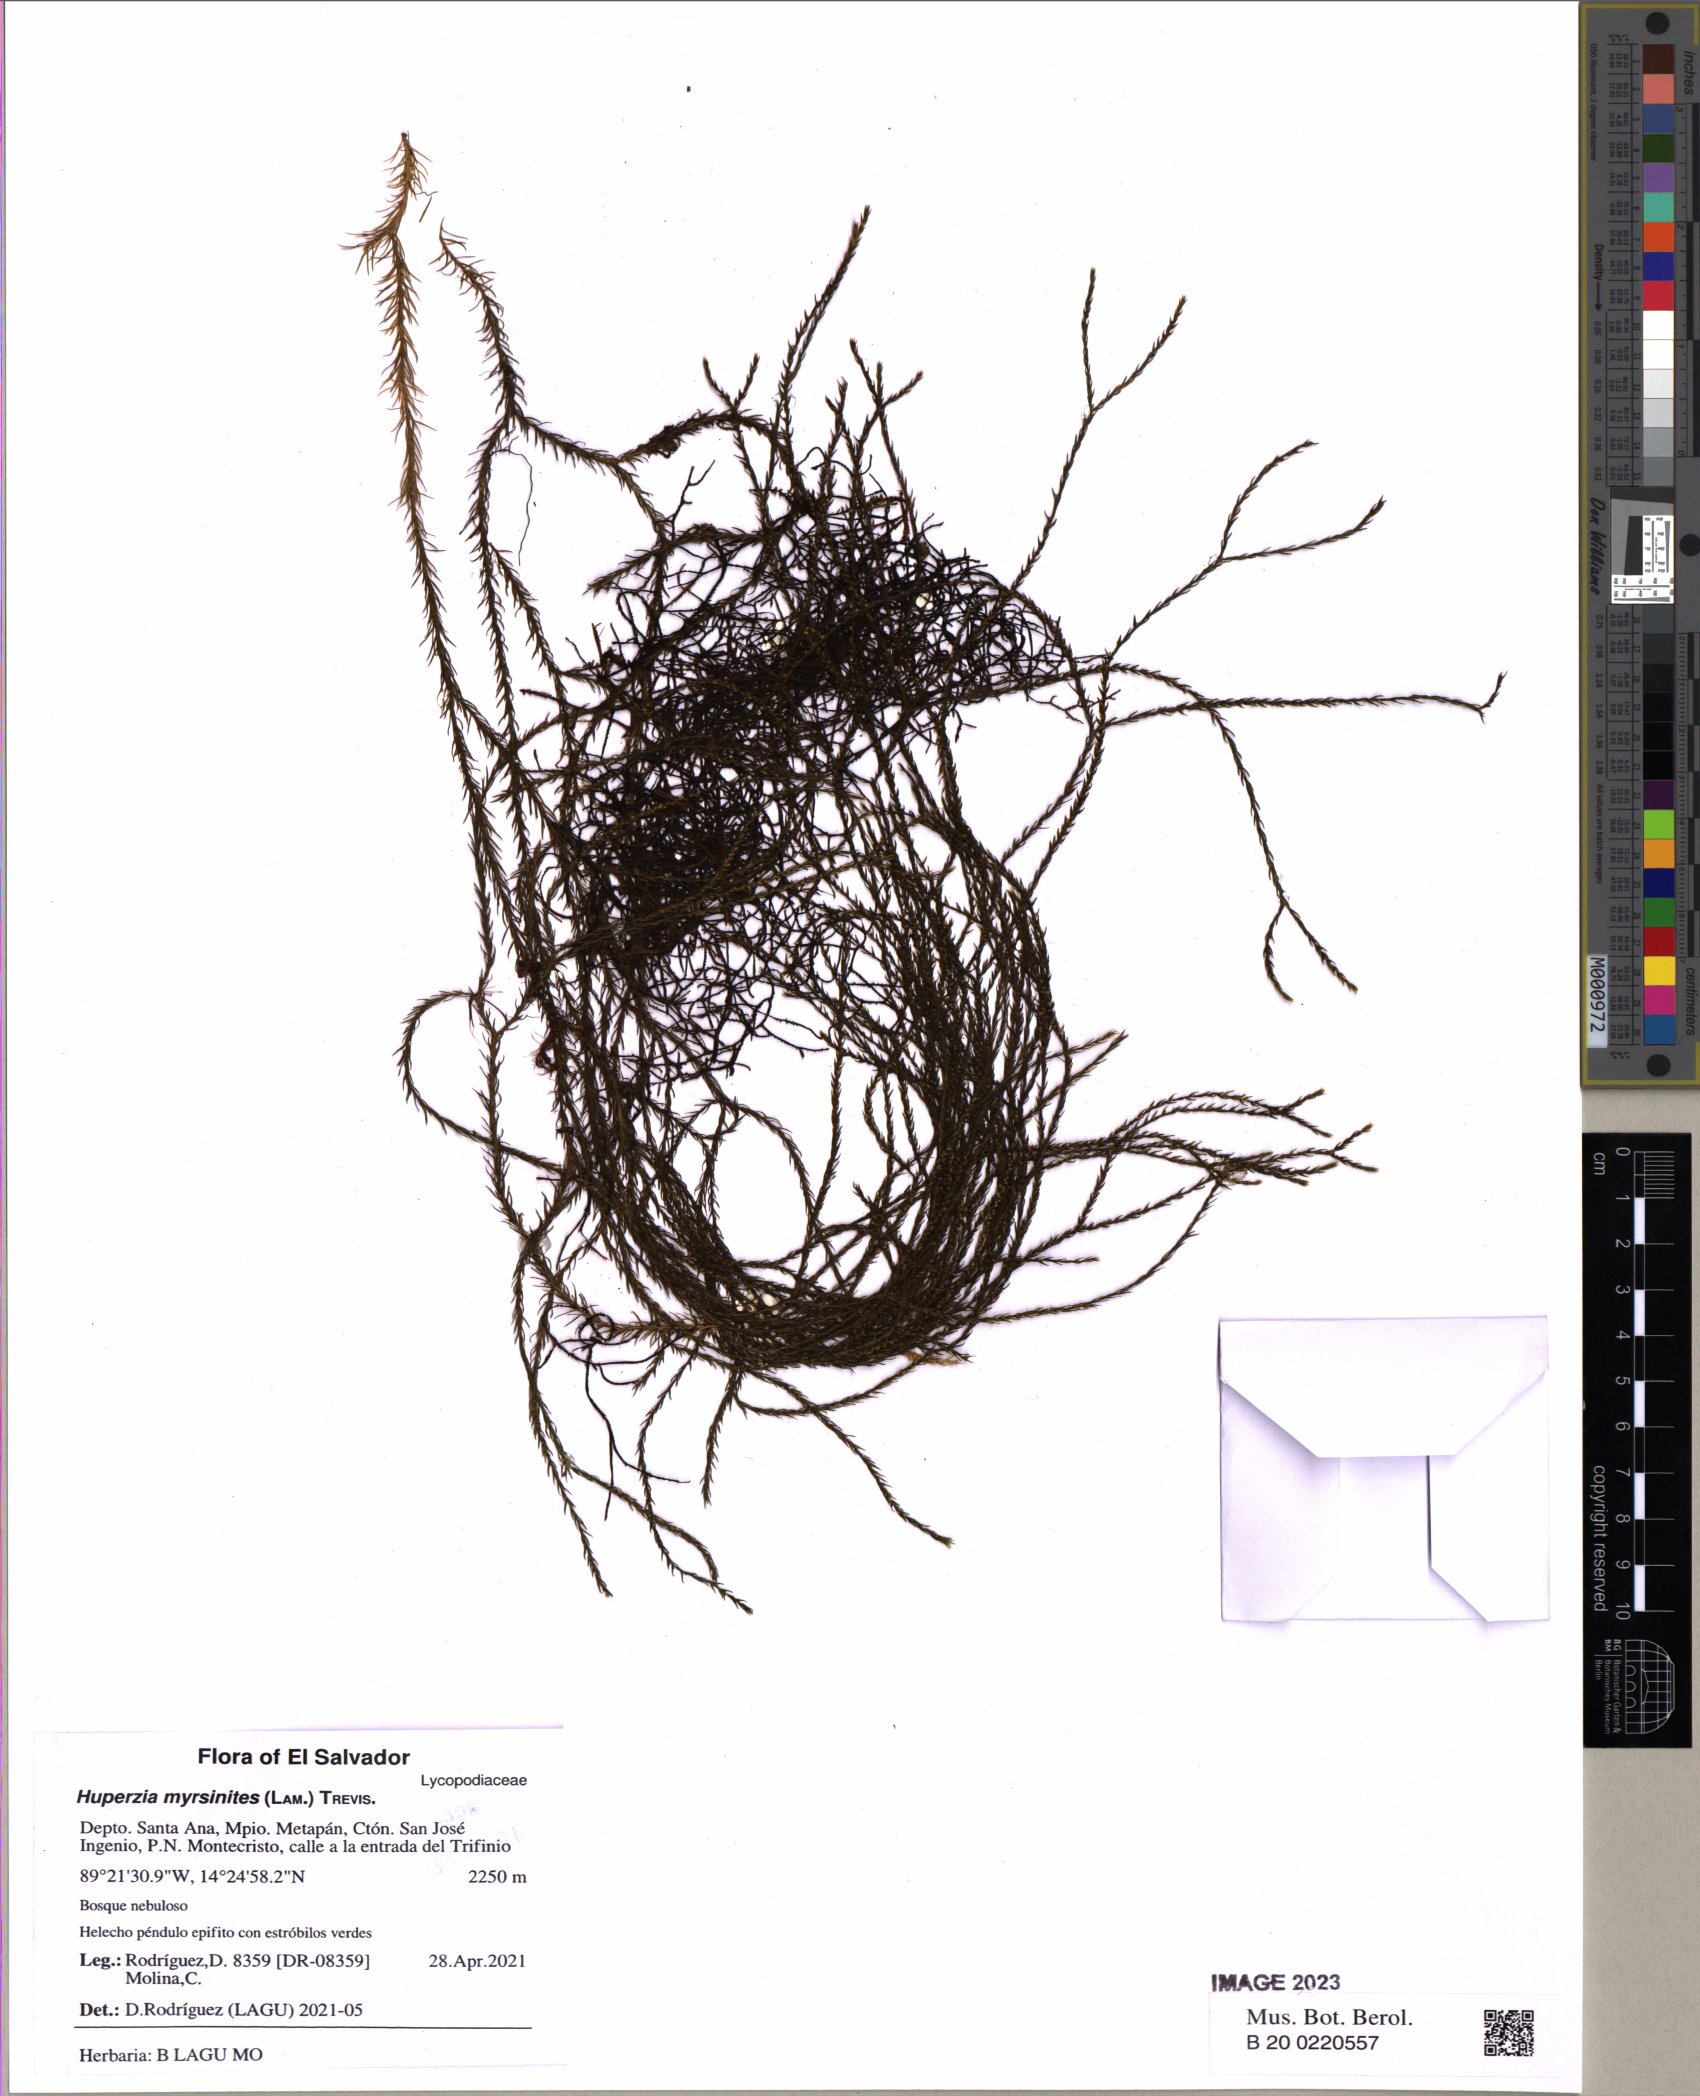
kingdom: Plantae
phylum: Tracheophyta
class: Lycopodiopsida
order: Lycopodiales
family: Lycopodiaceae
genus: Phlegmariurus
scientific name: Phlegmariurus myrsinites
